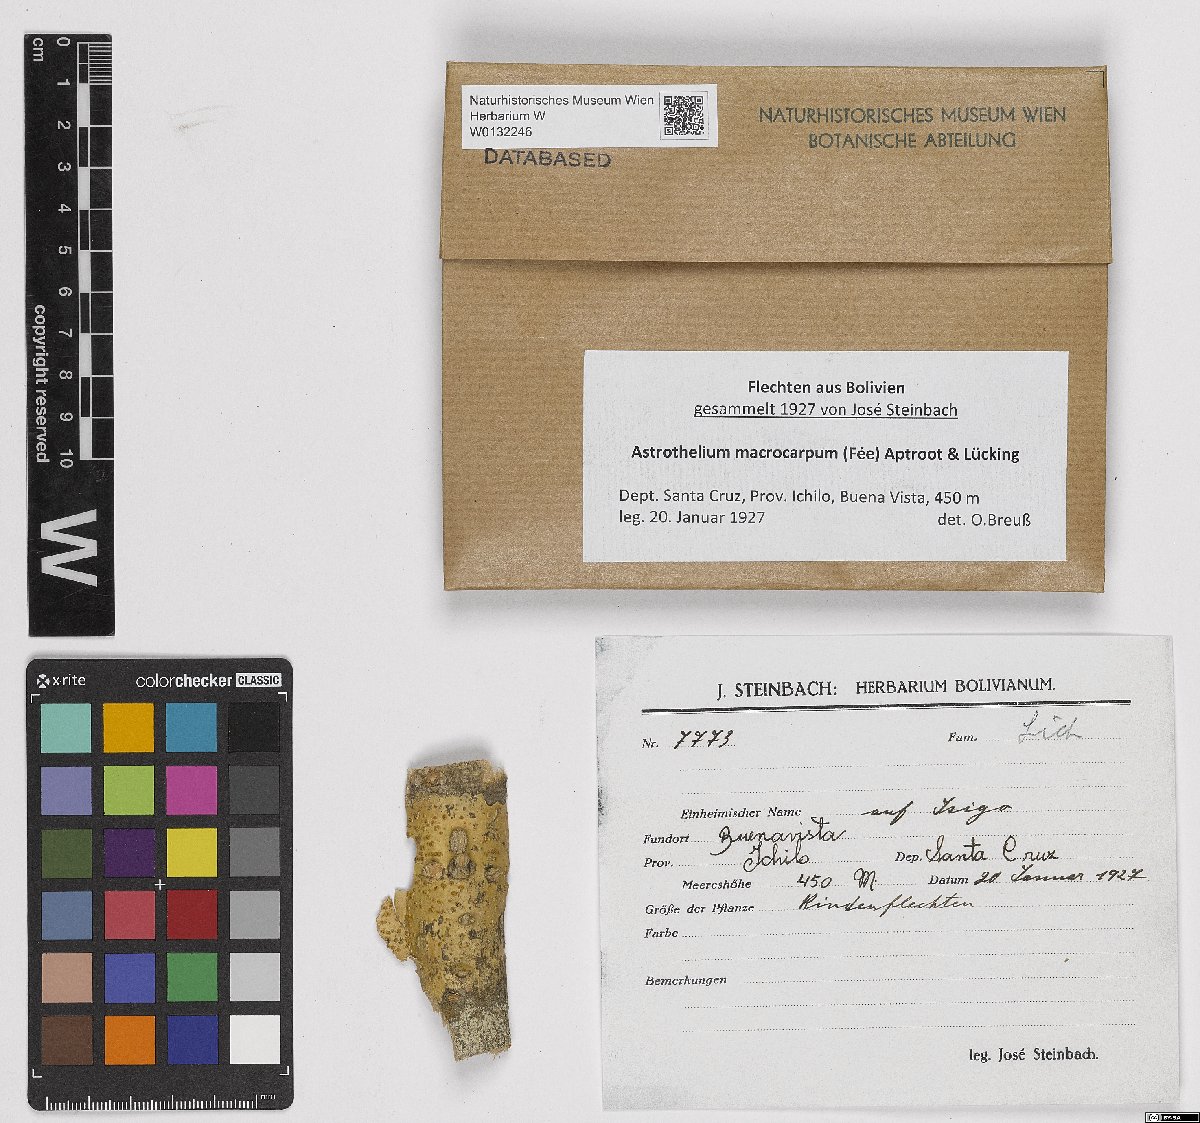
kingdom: Fungi
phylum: Ascomycota
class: Dothideomycetes
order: Trypetheliales
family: Trypetheliaceae
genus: Astrothelium
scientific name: Astrothelium macrocarpum
